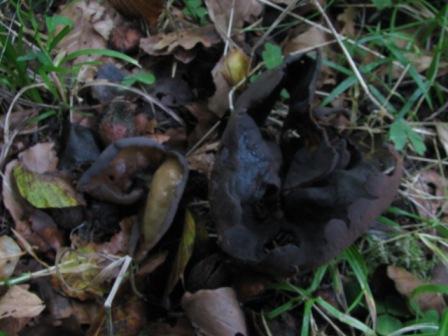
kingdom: Fungi
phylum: Ascomycota
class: Pezizomycetes
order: Pezizales
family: Otideaceae
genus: Otidea
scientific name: Otidea bufonia
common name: brun ørebæger
